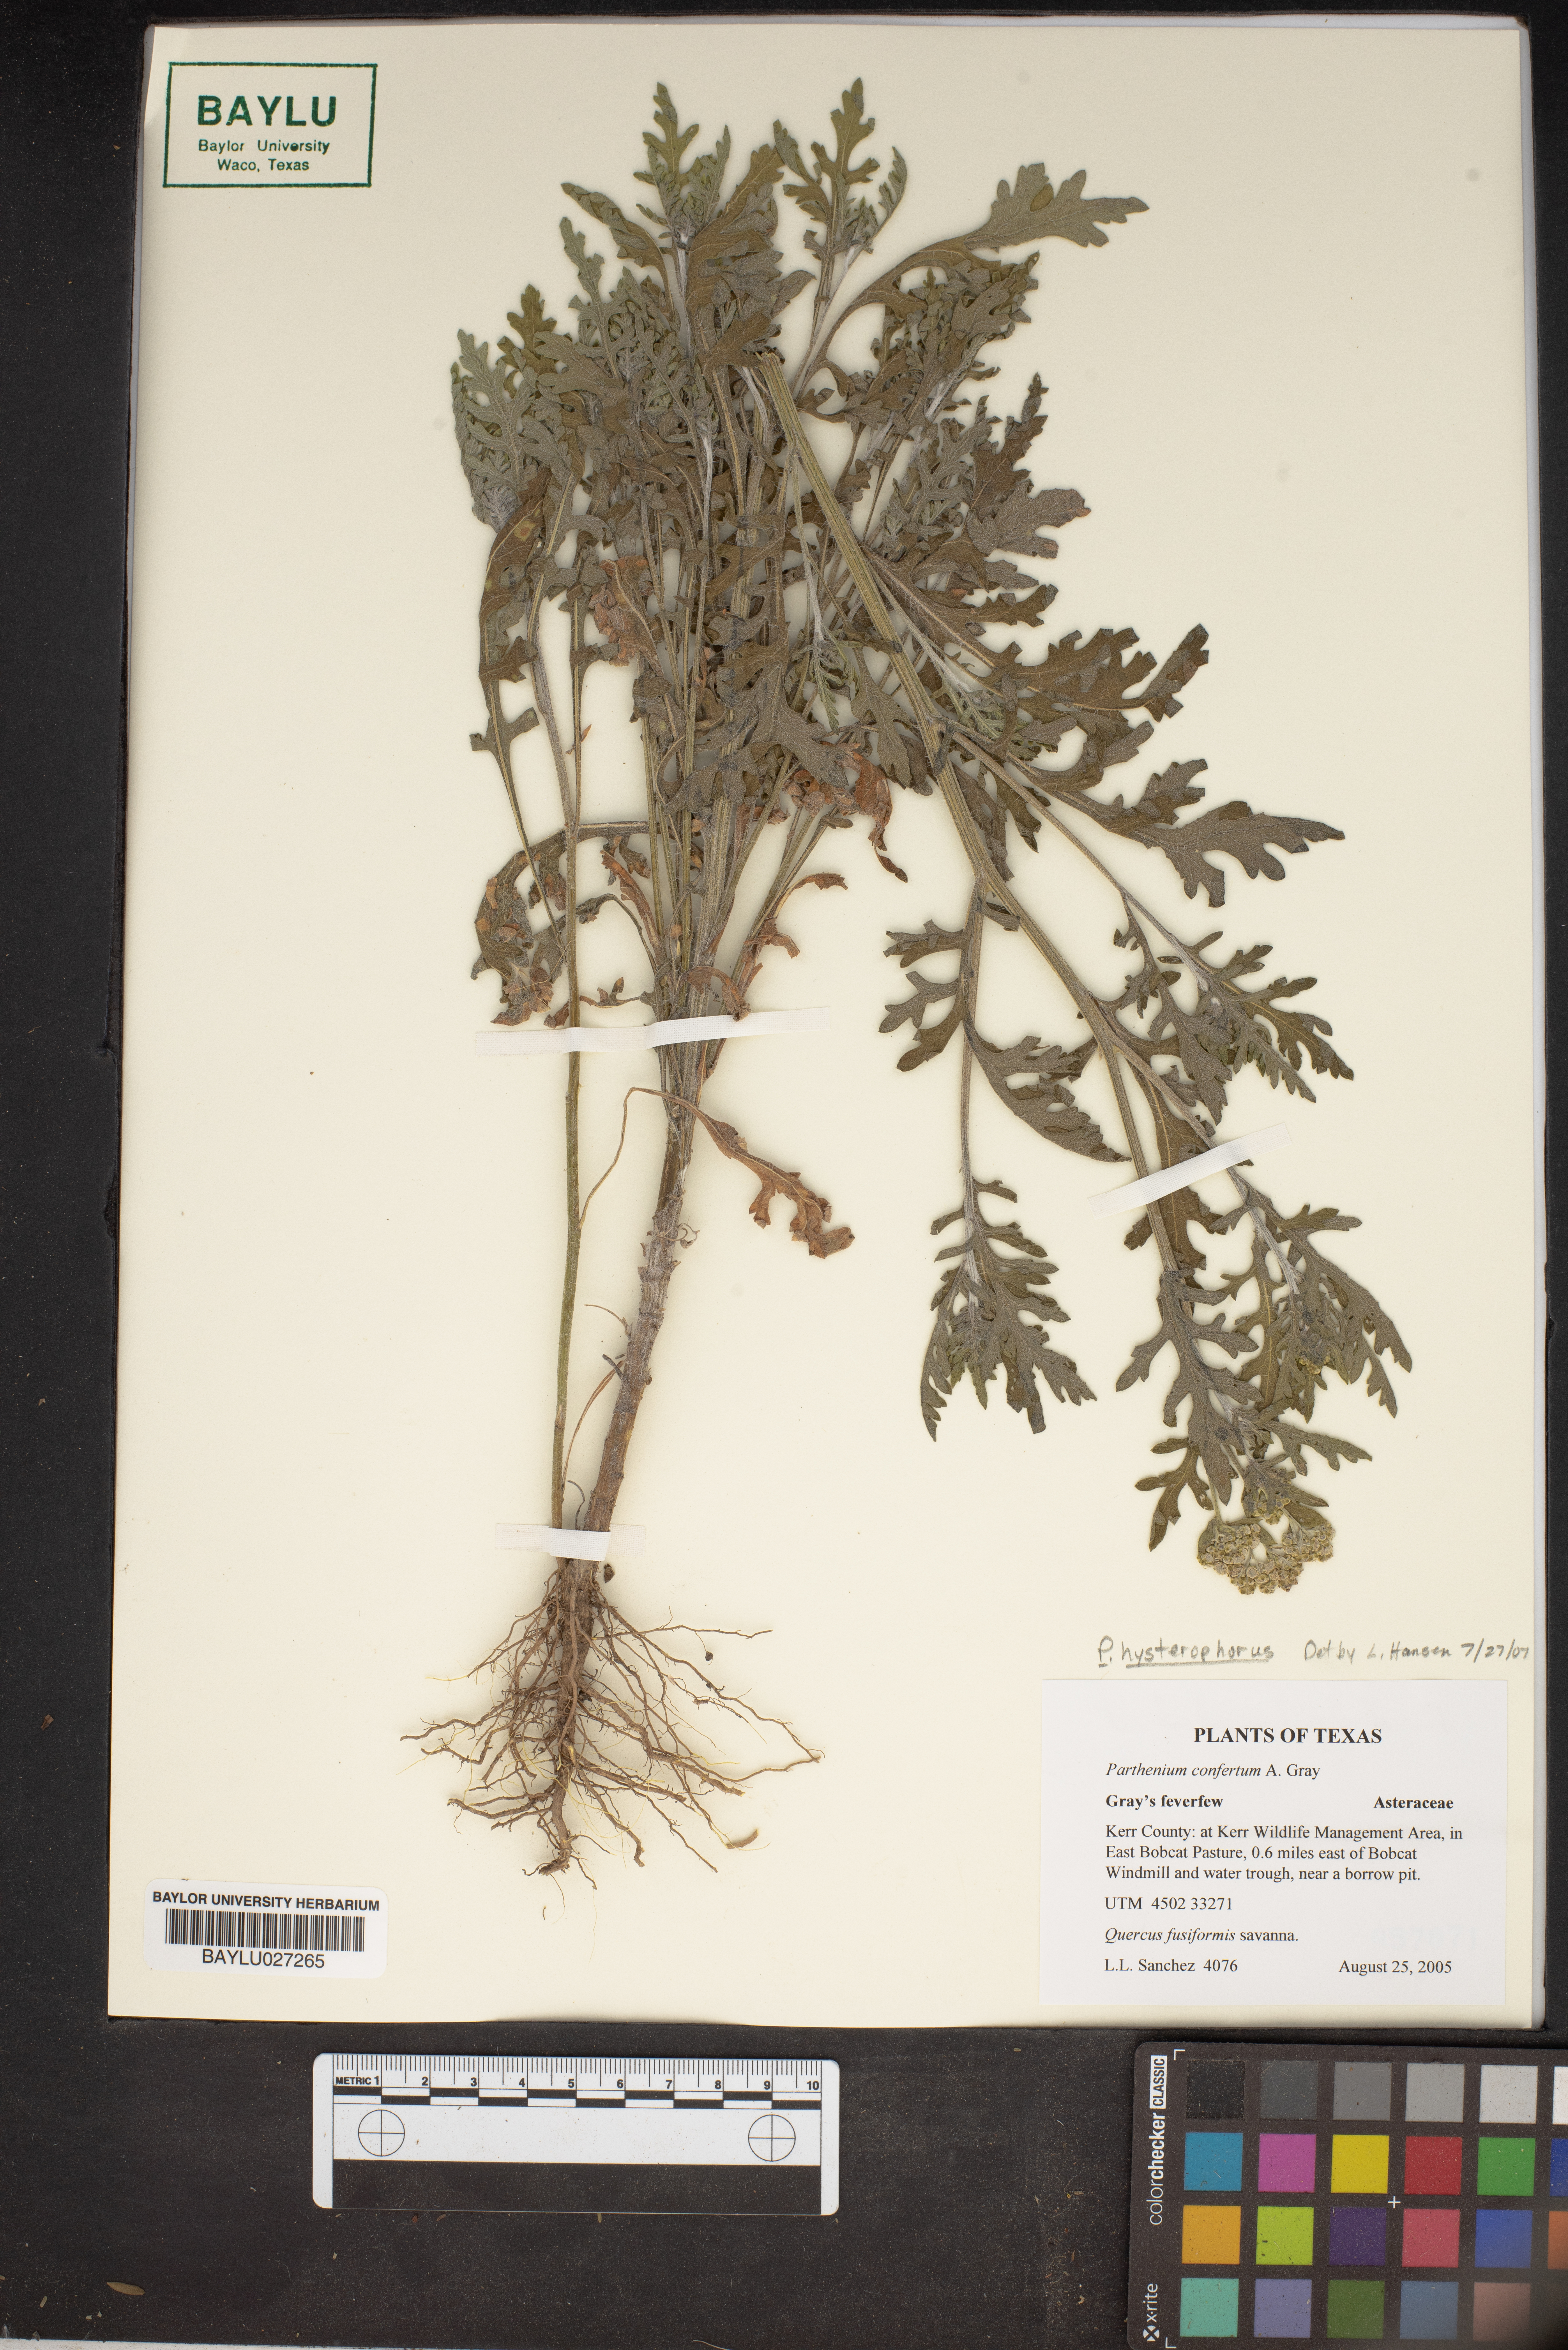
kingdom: Plantae
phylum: Tracheophyta
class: Magnoliopsida
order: Asterales
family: Asteraceae
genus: Parthenium
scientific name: Parthenium hysterophorus
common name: Santa maria feverfew
